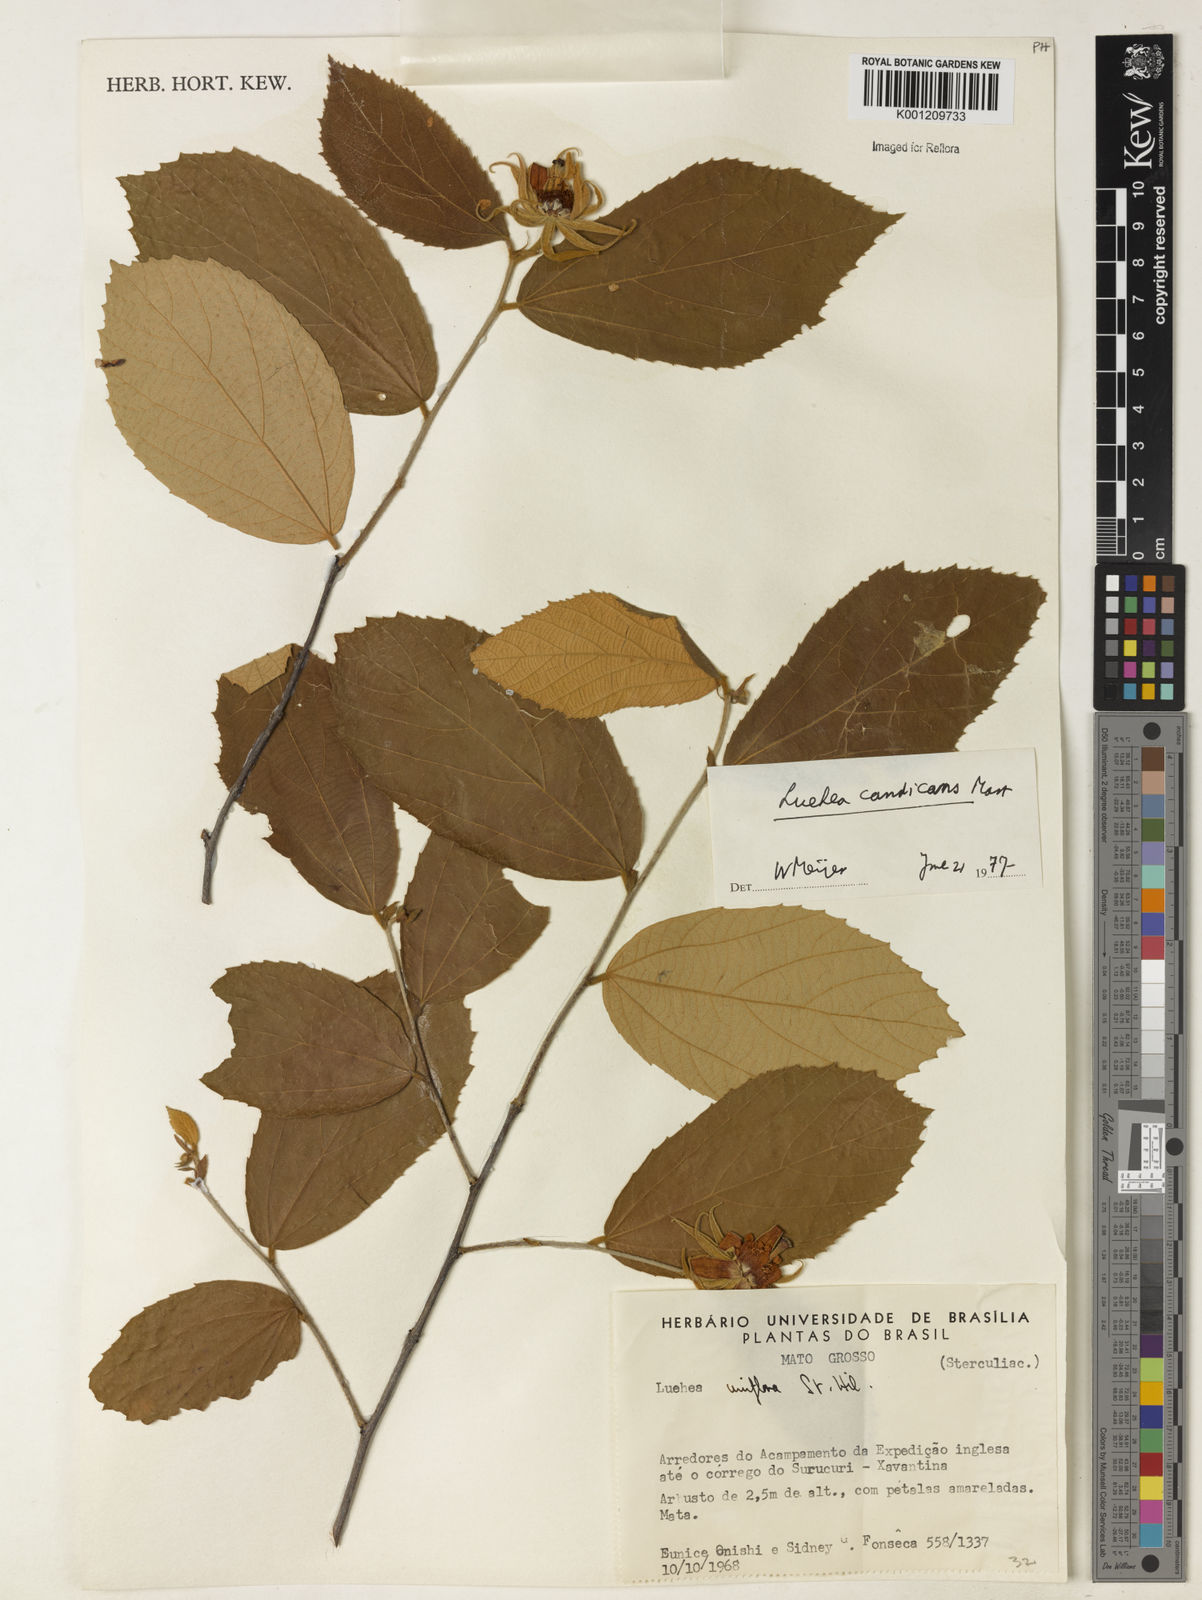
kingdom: Plantae
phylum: Tracheophyta
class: Magnoliopsida
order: Malvales
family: Malvaceae
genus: Luehea
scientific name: Luehea candicans
